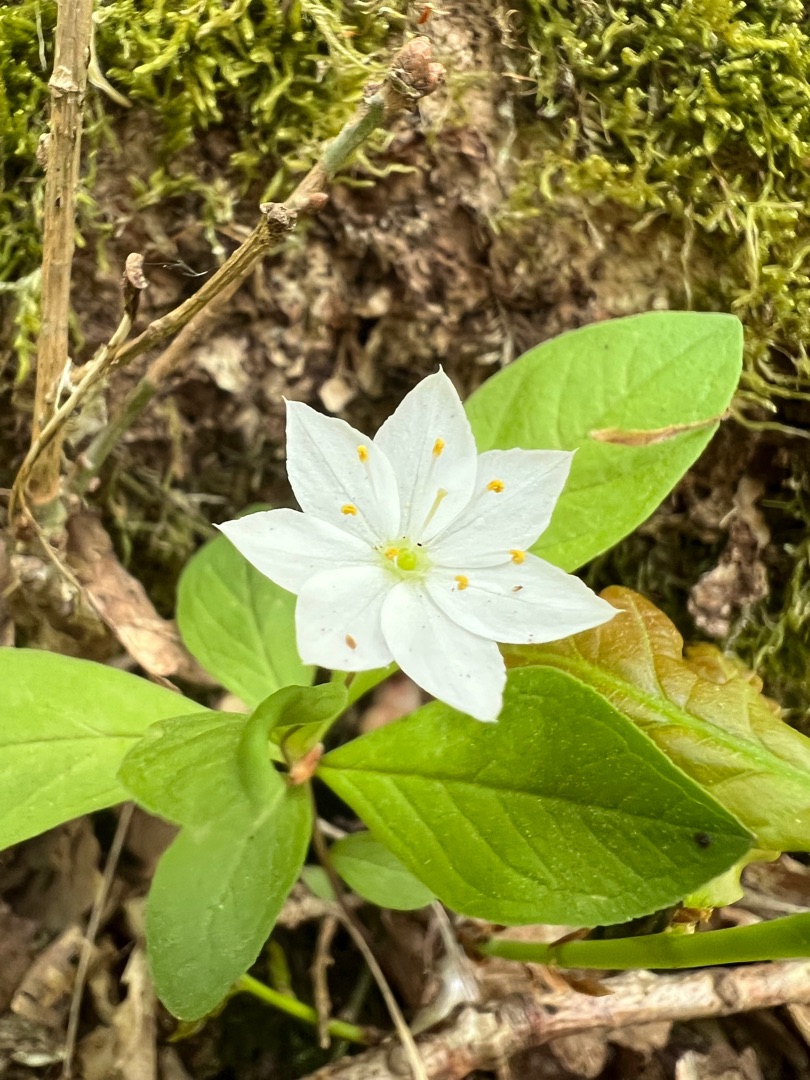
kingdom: Plantae
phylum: Tracheophyta
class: Magnoliopsida
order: Ericales
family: Primulaceae
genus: Lysimachia
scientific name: Lysimachia europaea
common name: Skovstjerne
